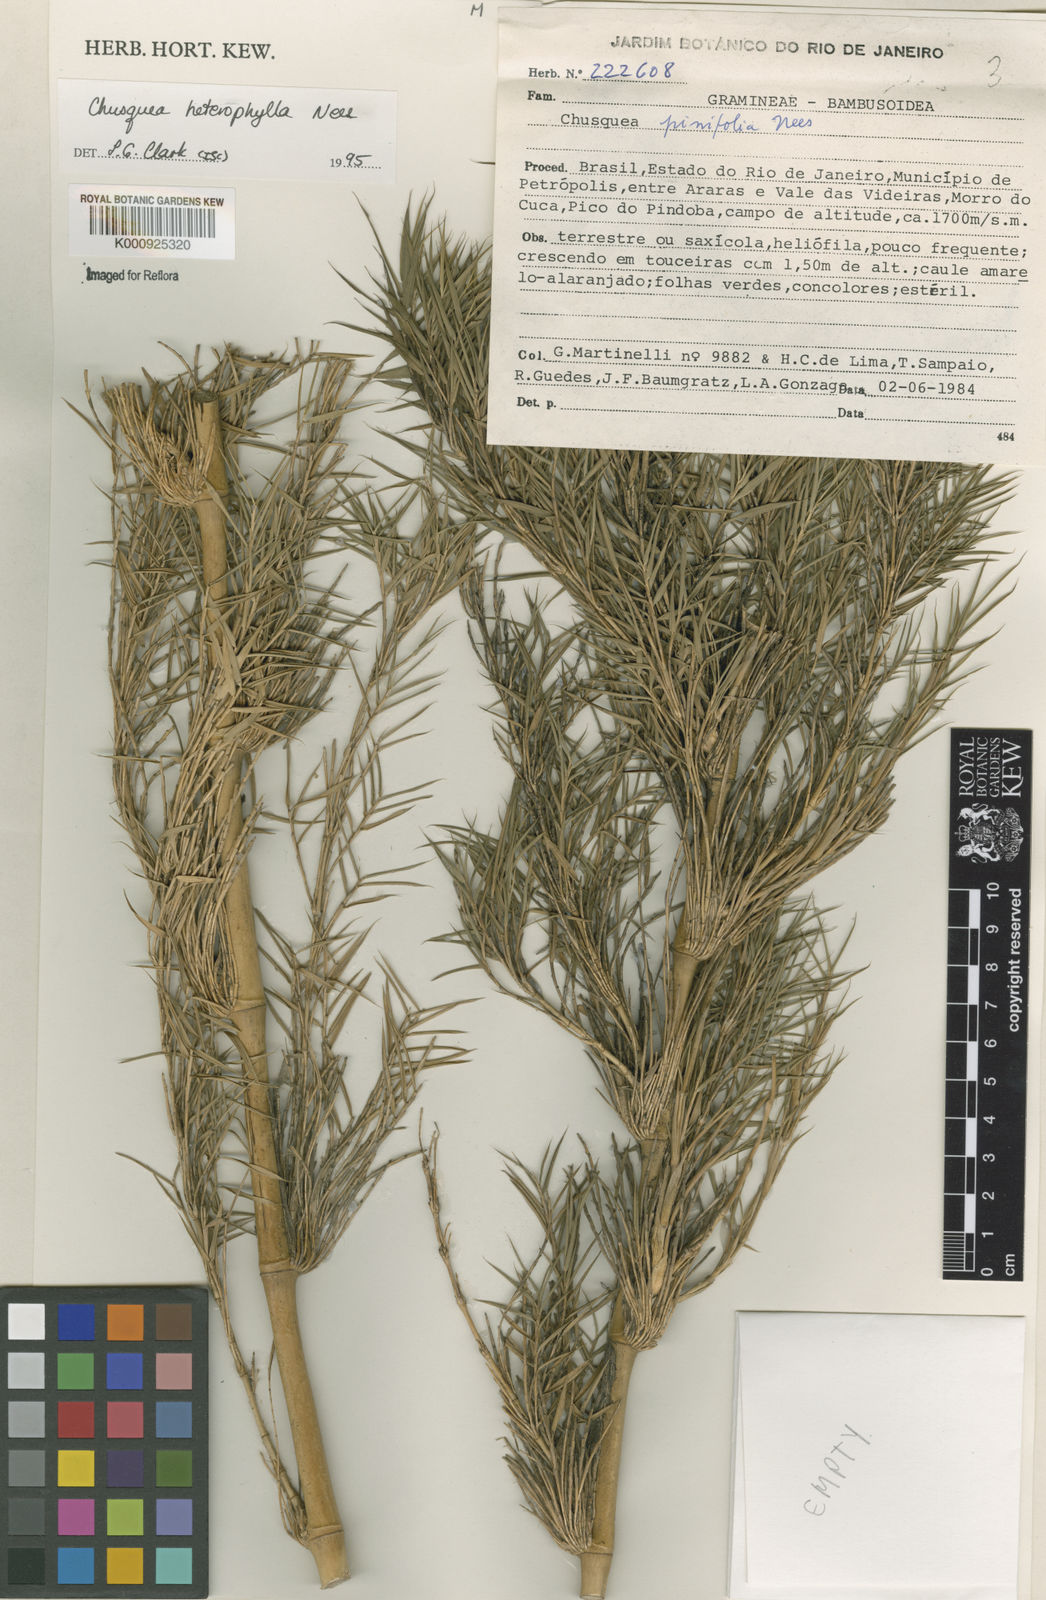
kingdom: Plantae
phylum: Tracheophyta
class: Liliopsida
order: Poales
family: Poaceae
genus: Chusquea
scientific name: Chusquea heterophylla
